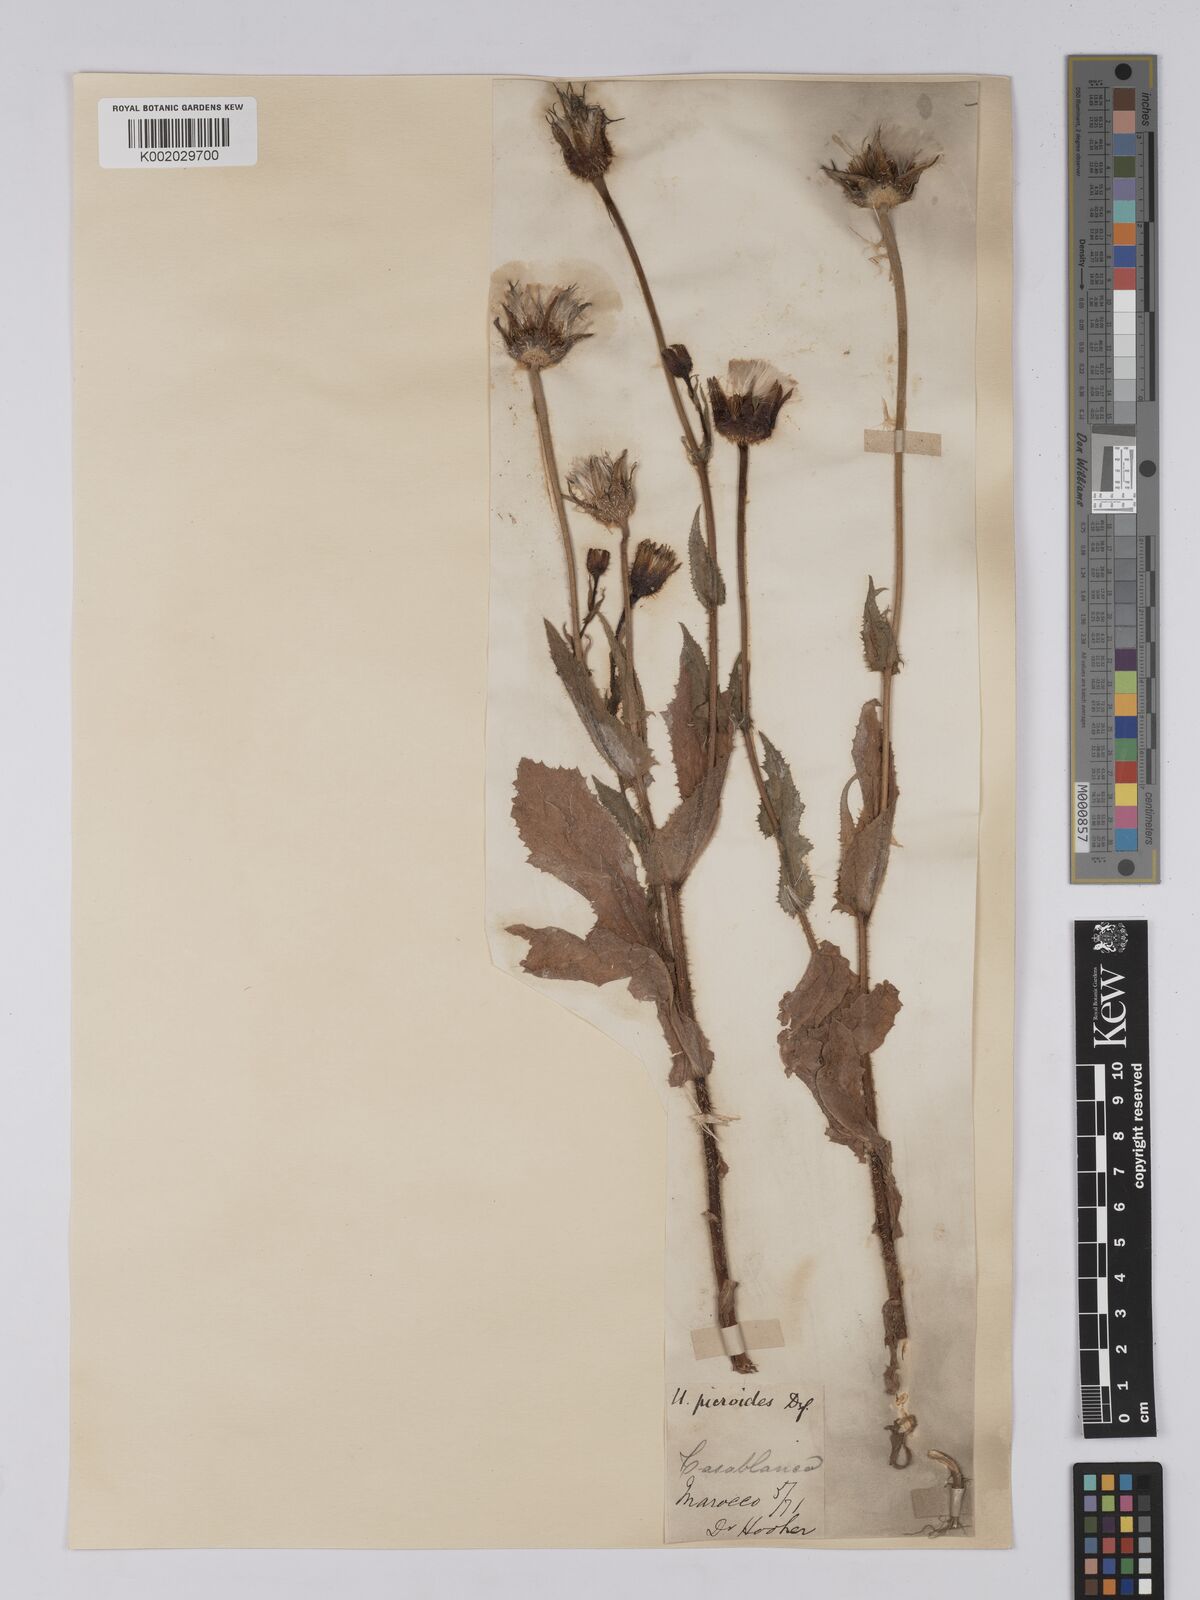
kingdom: Plantae
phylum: Tracheophyta
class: Magnoliopsida
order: Asterales
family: Asteraceae
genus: Urospermum
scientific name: Urospermum picroides
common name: False hawkbit
